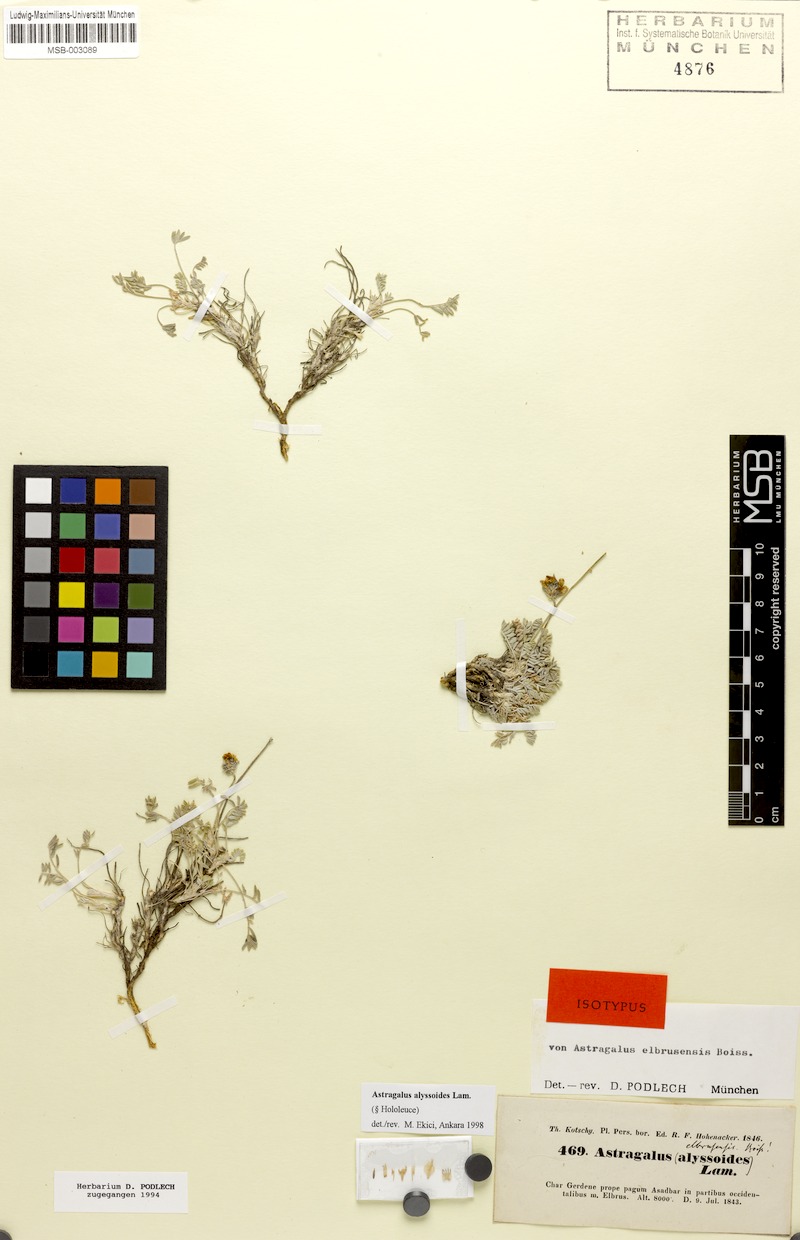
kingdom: Plantae
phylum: Tracheophyta
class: Magnoliopsida
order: Fabales
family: Fabaceae
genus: Astragalus
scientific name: Astragalus alyssoides
